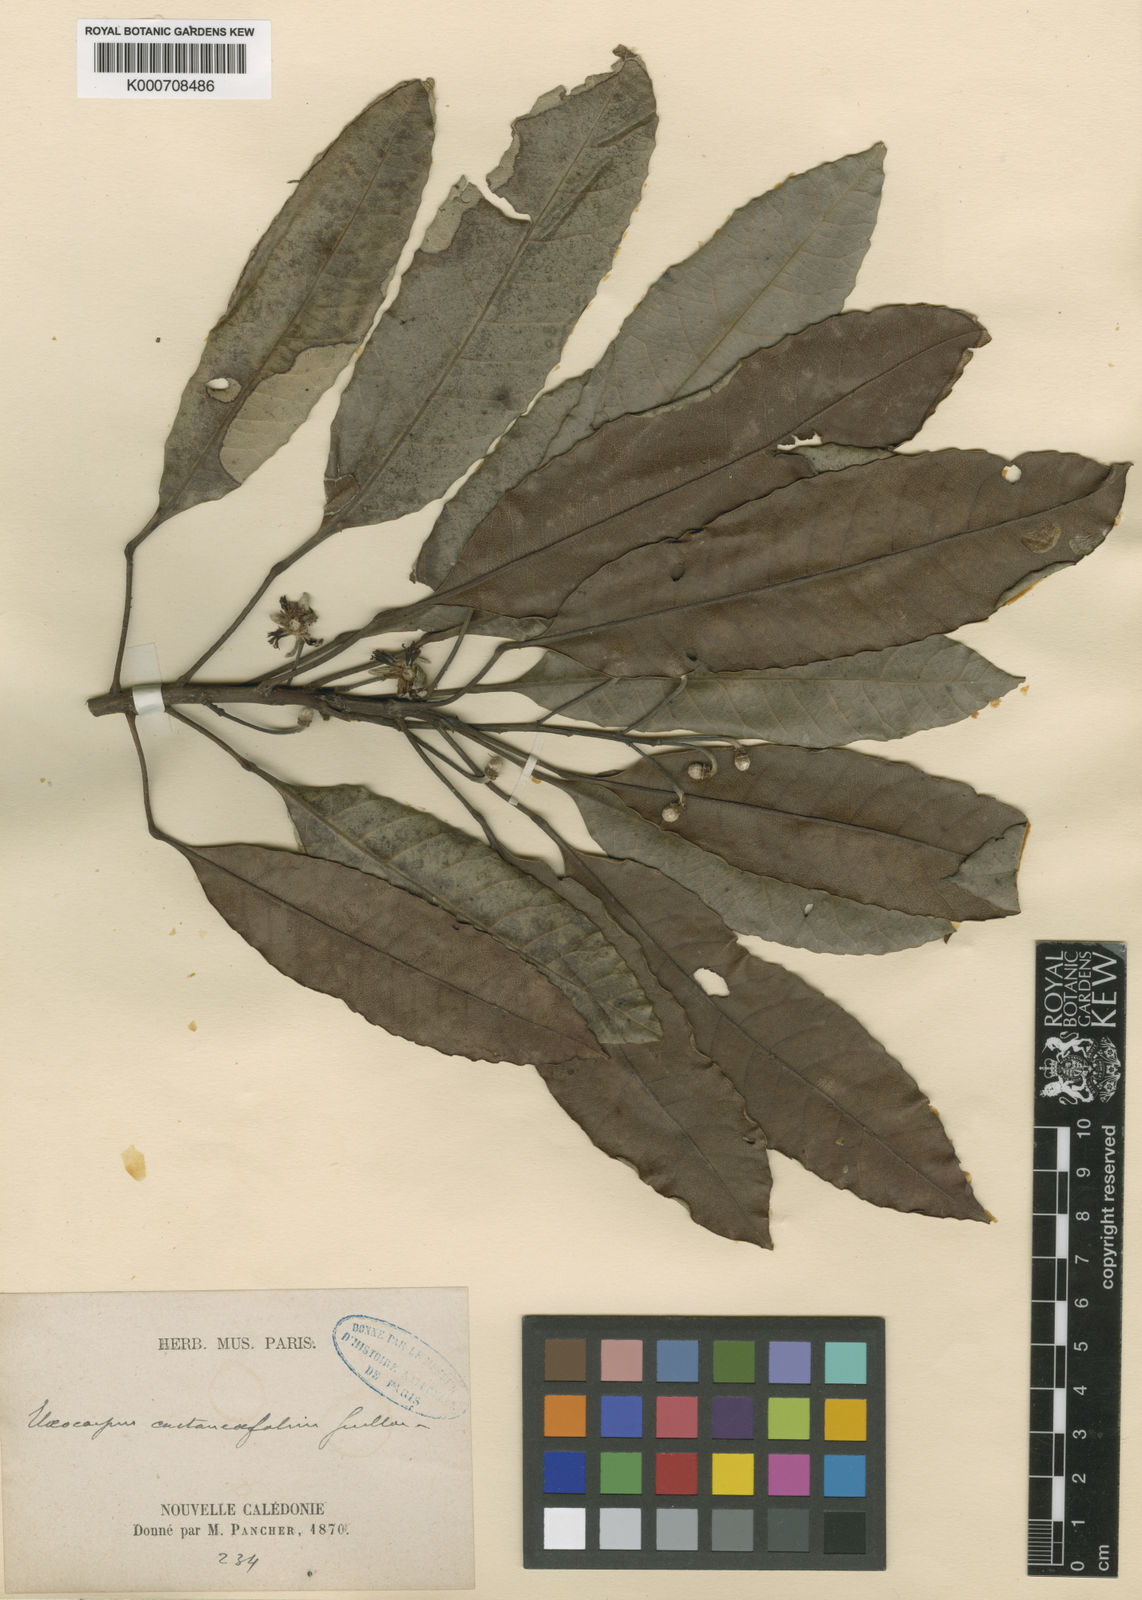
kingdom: Plantae
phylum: Tracheophyta
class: Magnoliopsida
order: Oxalidales
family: Elaeocarpaceae
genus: Elaeocarpus
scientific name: Elaeocarpus castaneifolius
